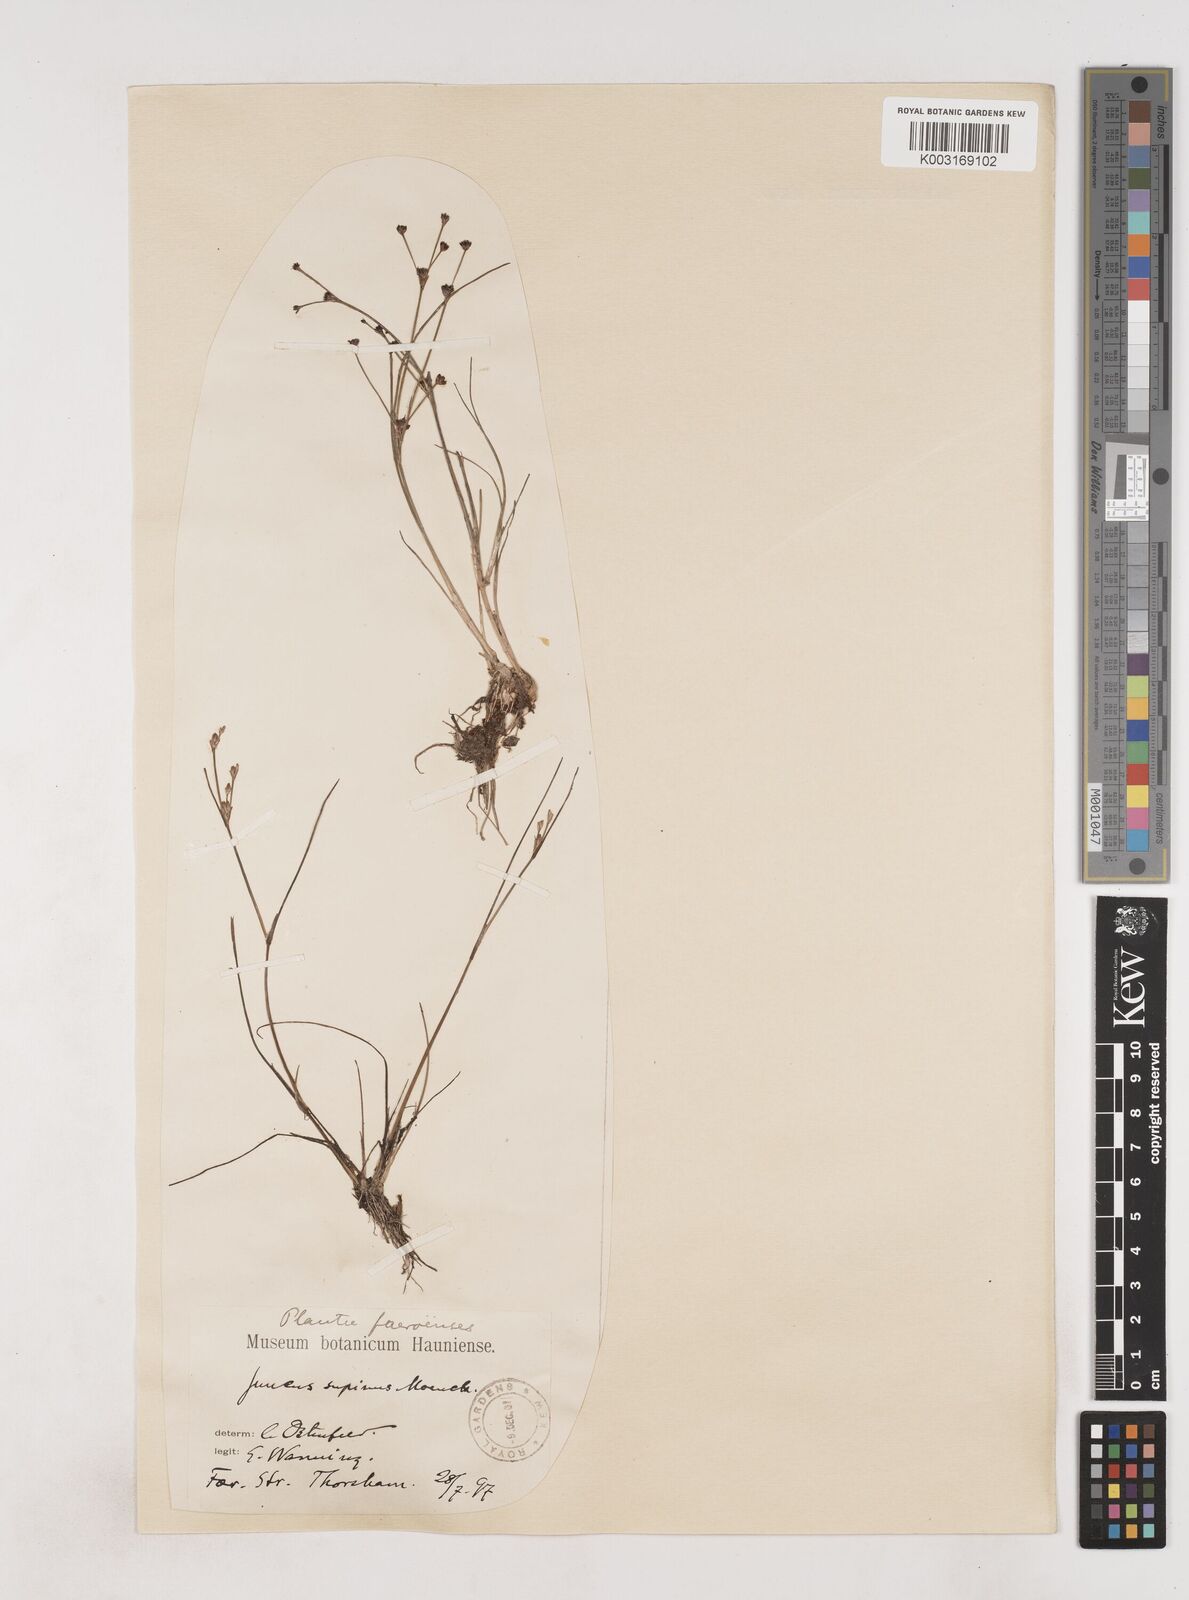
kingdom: Plantae
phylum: Tracheophyta
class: Liliopsida
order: Poales
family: Juncaceae
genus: Juncus
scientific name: Juncus bulbosus
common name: Bulbous rush
